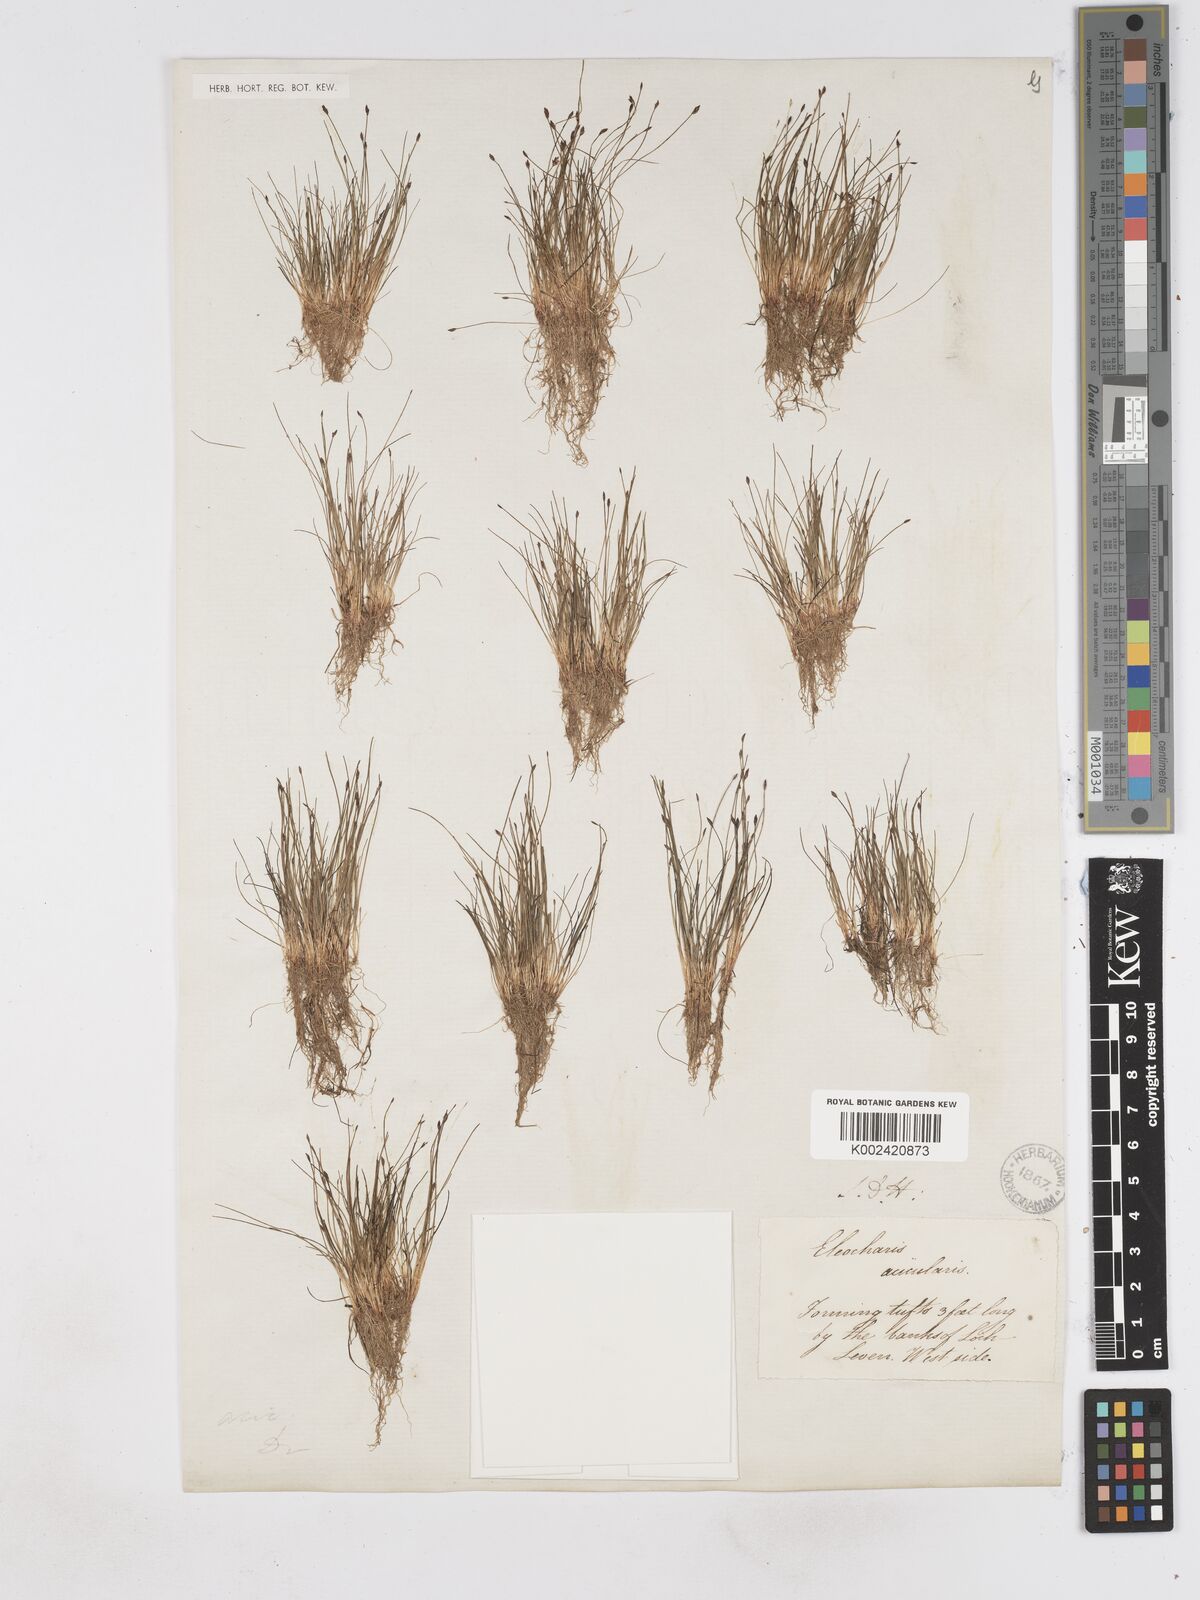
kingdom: Plantae
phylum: Tracheophyta
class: Liliopsida
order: Poales
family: Cyperaceae
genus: Eleocharis
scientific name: Eleocharis acicularis
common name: Needle spike-rush
